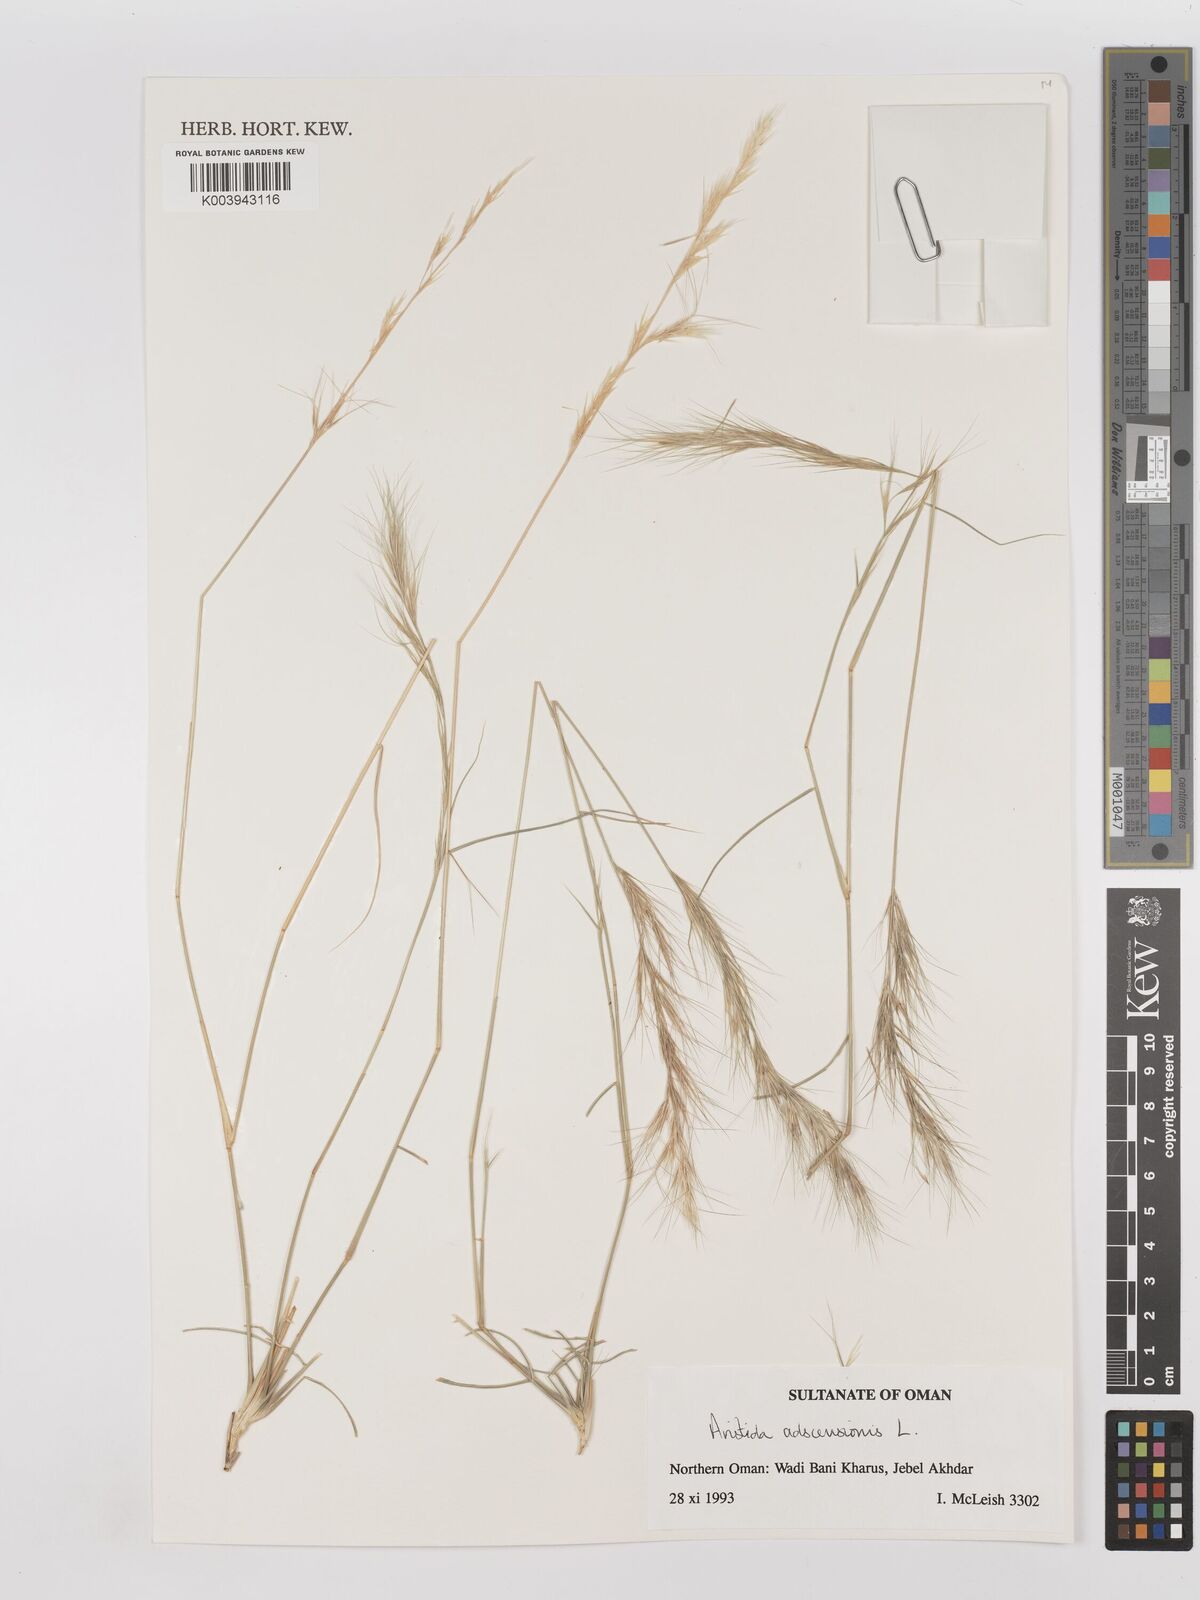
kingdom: Plantae
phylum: Tracheophyta
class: Liliopsida
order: Poales
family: Poaceae
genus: Aristida
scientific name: Aristida adscensionis
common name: Sixweeks threeawn
